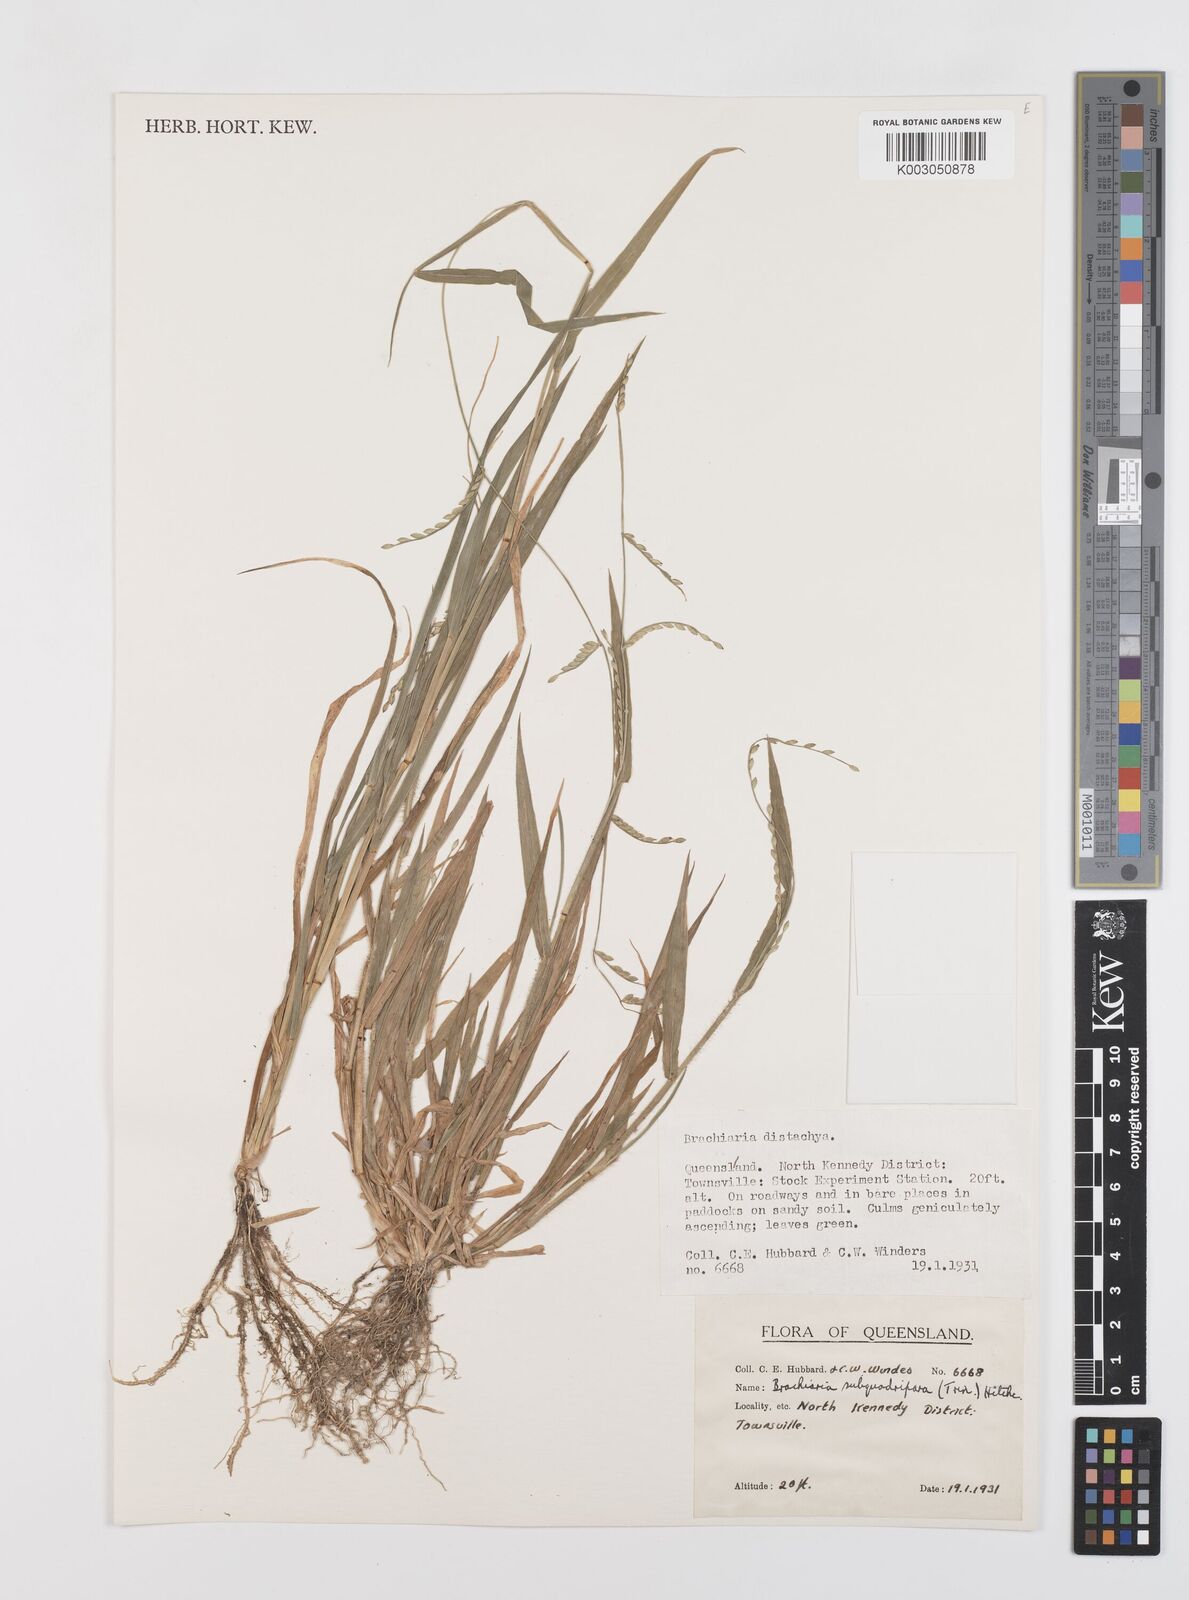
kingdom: Plantae
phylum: Tracheophyta
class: Liliopsida
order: Poales
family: Poaceae
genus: Urochloa
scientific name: Urochloa subquadripara
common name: Armgrass millet
